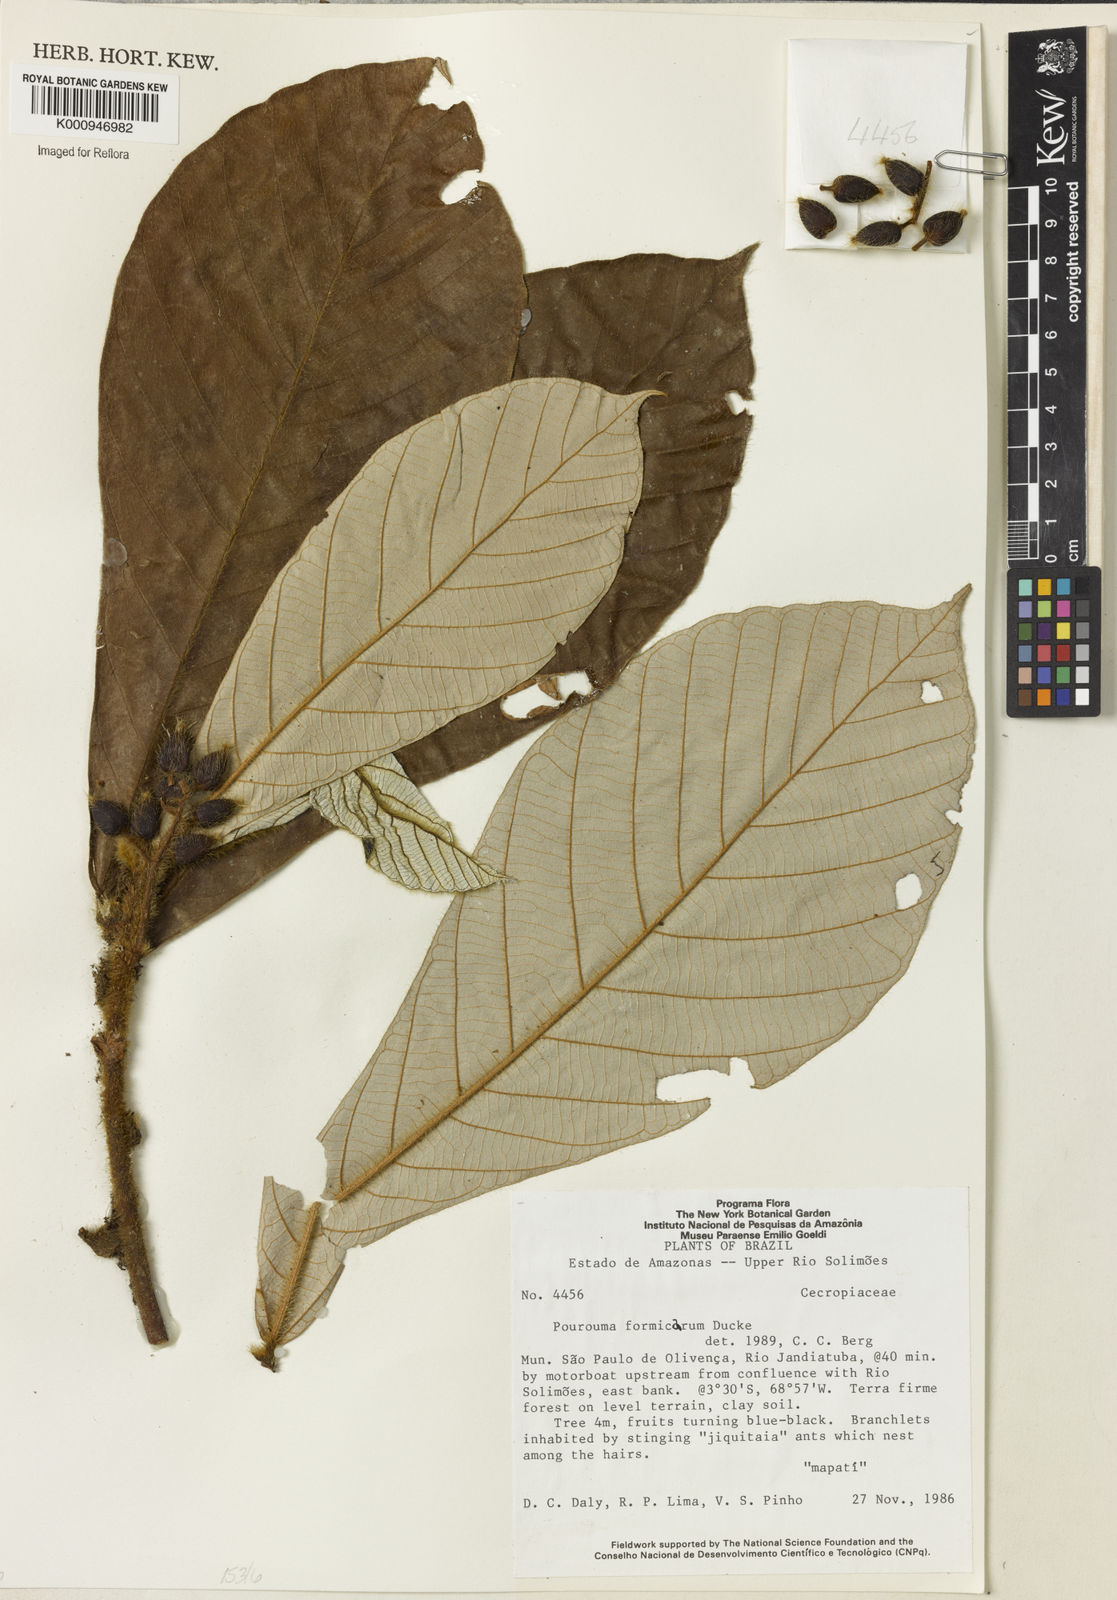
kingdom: Plantae
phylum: Tracheophyta
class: Magnoliopsida
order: Rosales
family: Urticaceae
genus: Pourouma
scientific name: Pourouma formicarum
